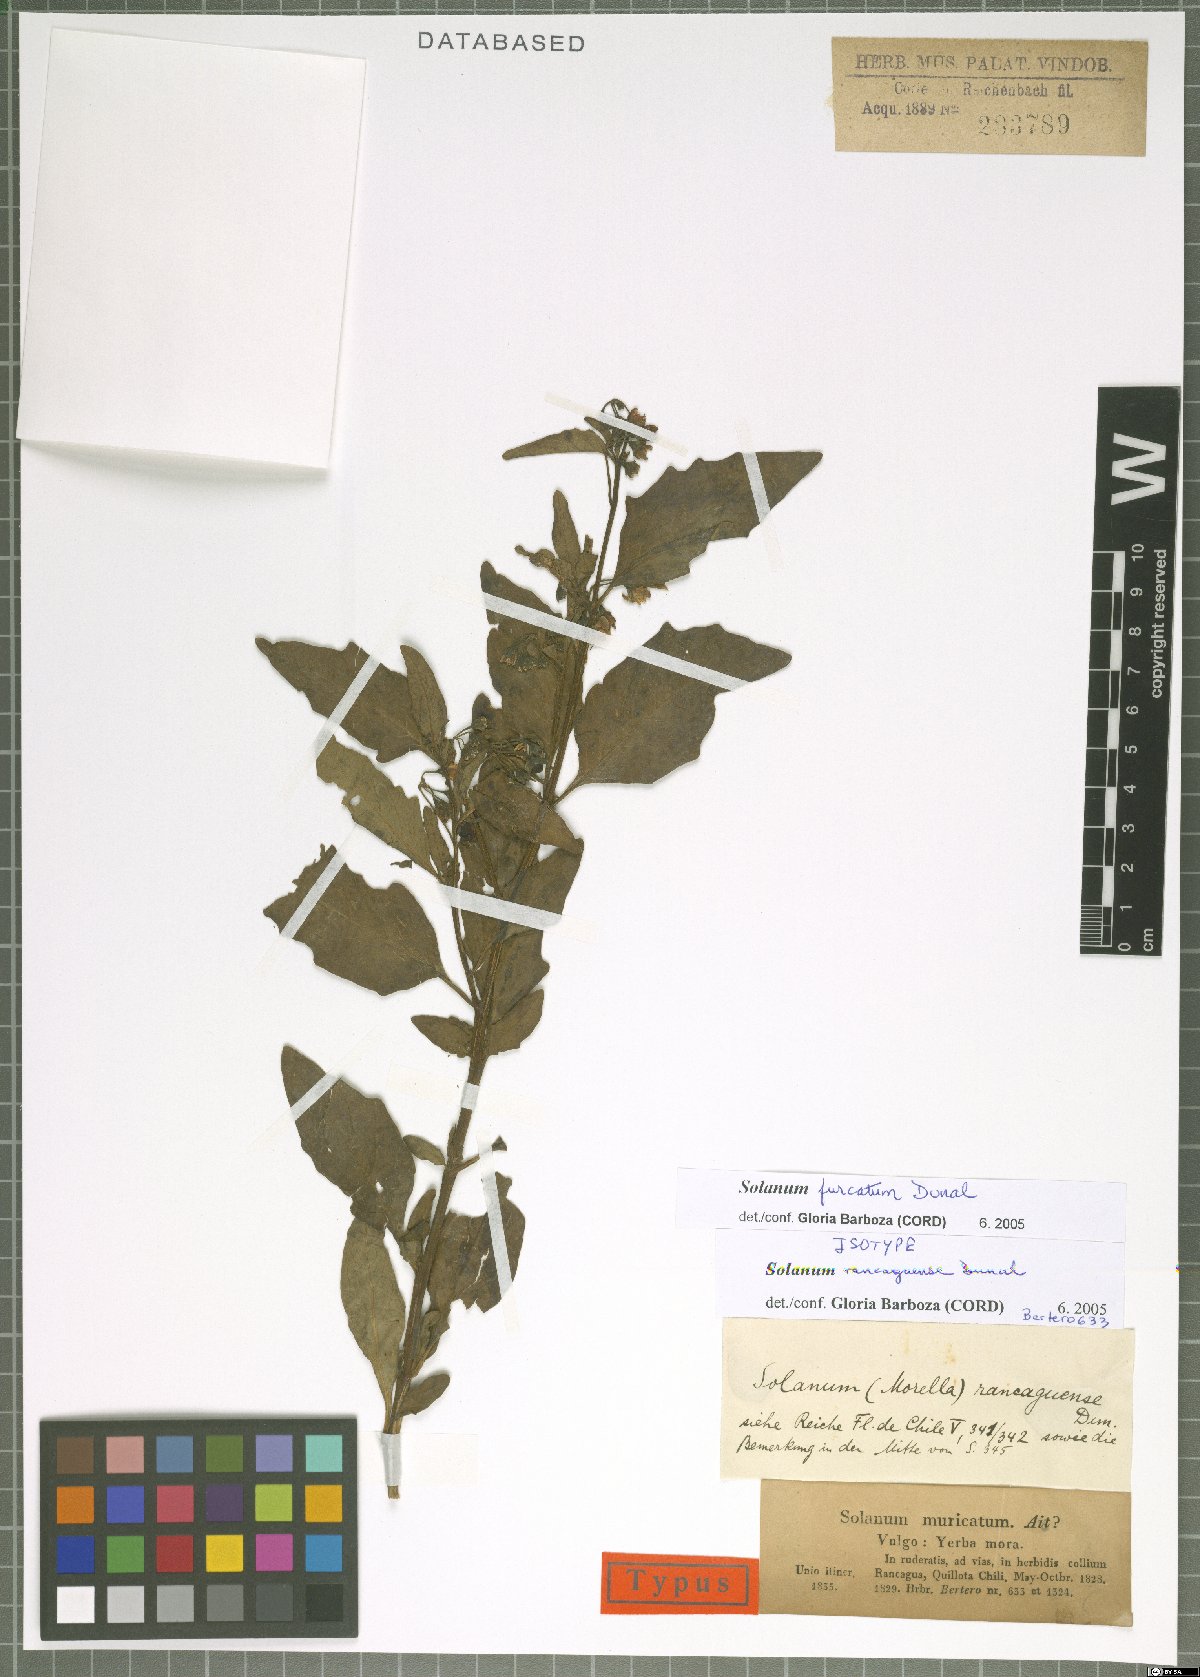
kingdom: Plantae
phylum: Tracheophyta
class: Magnoliopsida
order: Solanales
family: Solanaceae
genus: Solanum
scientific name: Solanum furcatum
